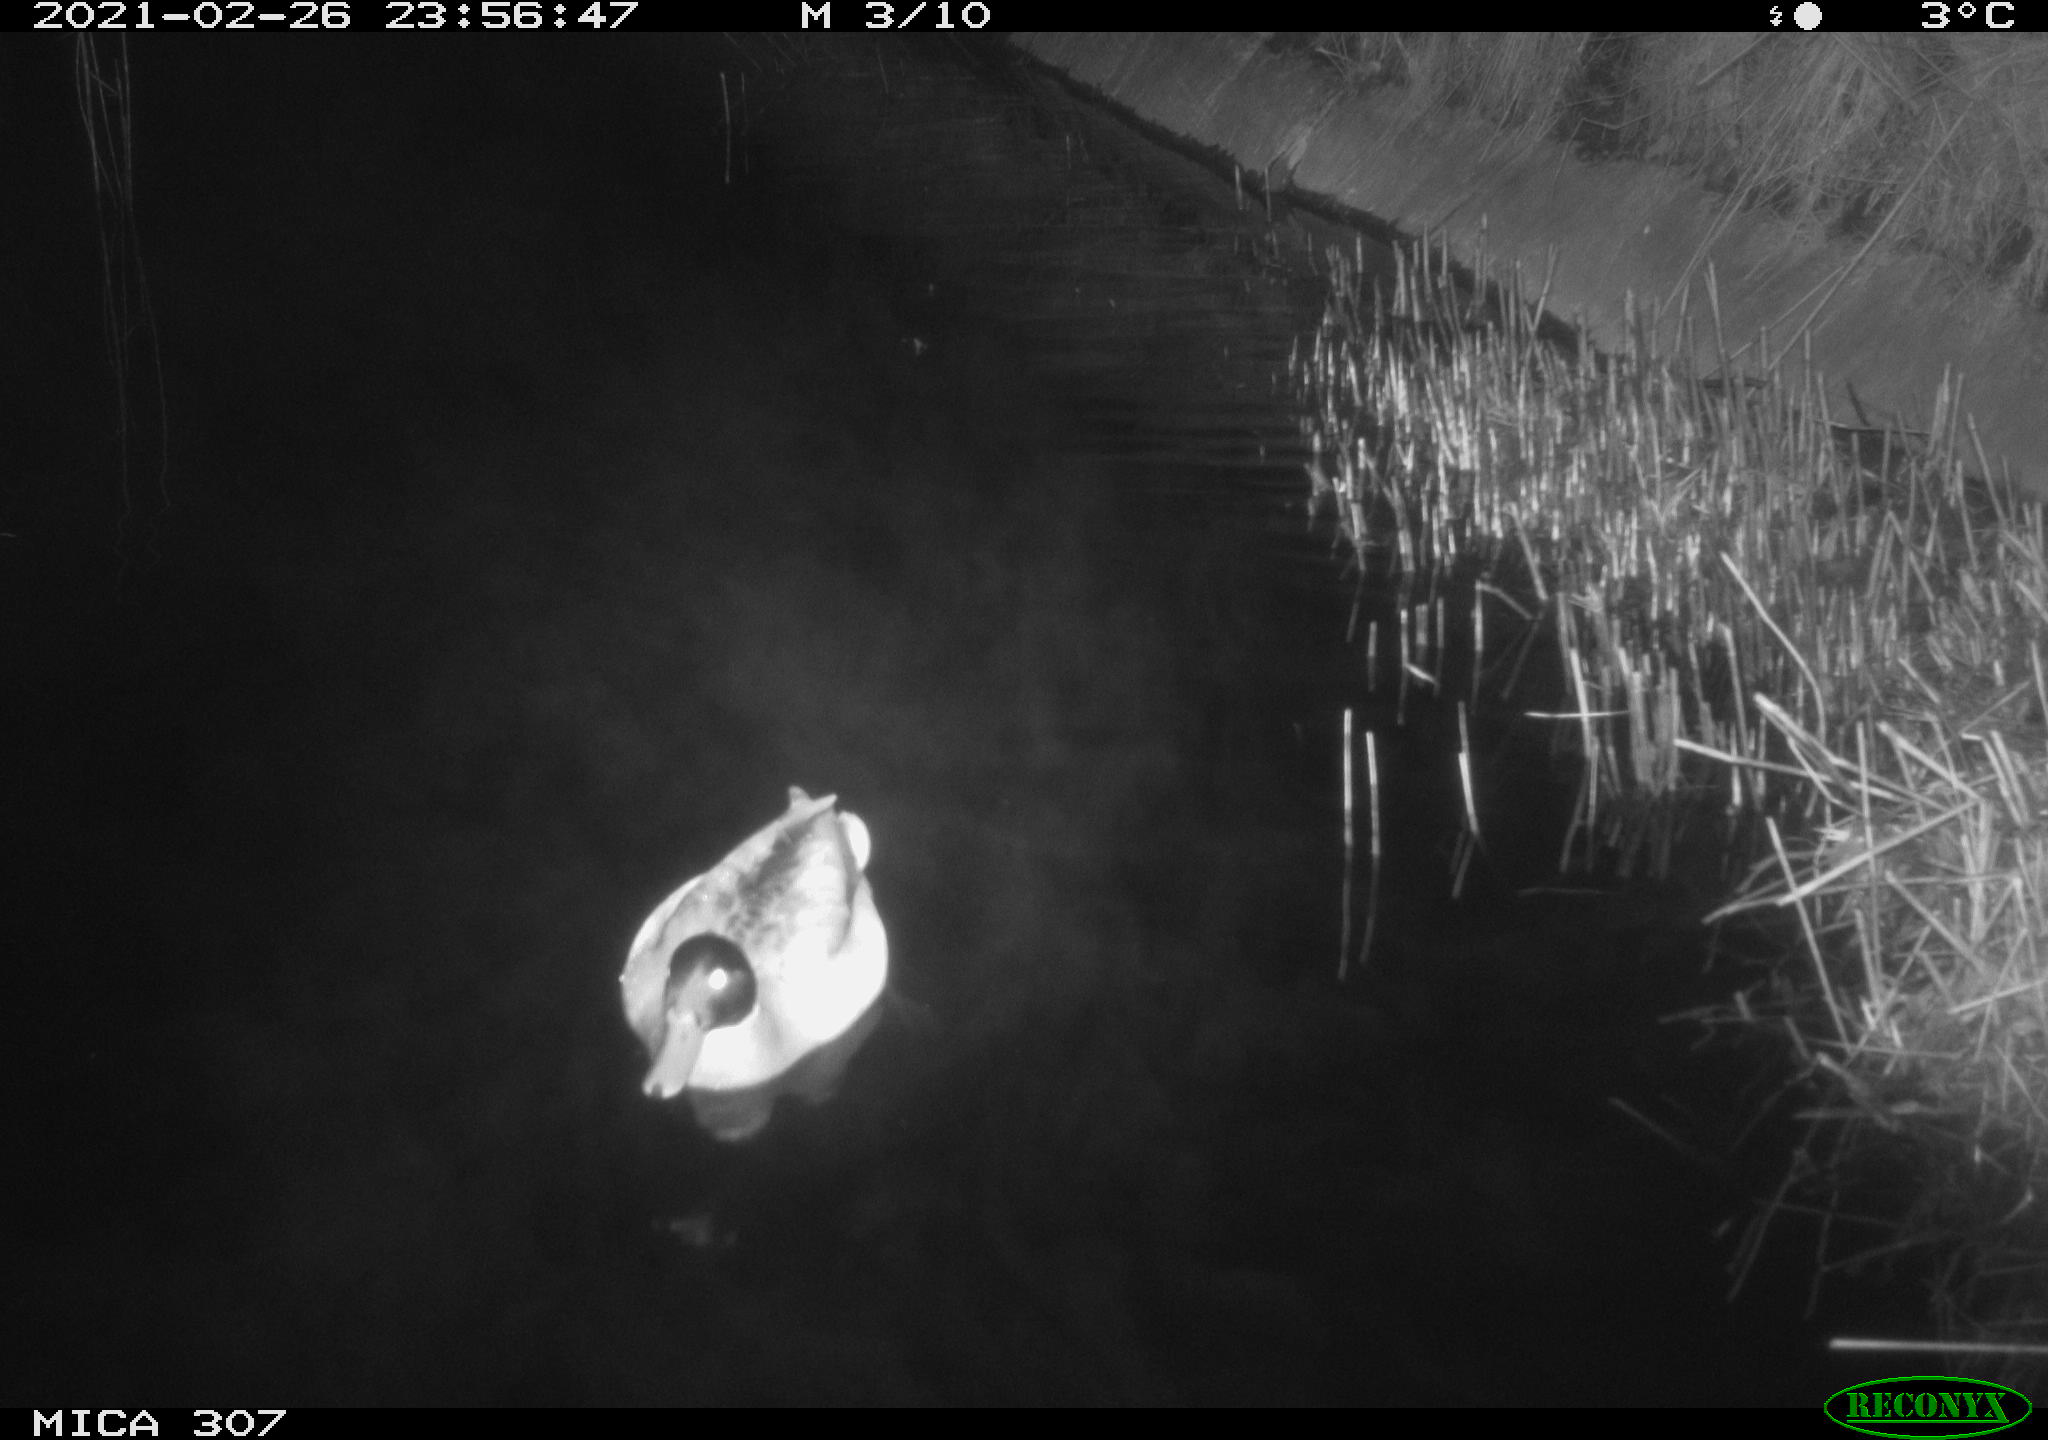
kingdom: Animalia
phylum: Chordata
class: Aves
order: Anseriformes
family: Anatidae
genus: Anas
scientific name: Anas platyrhynchos
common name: Mallard
